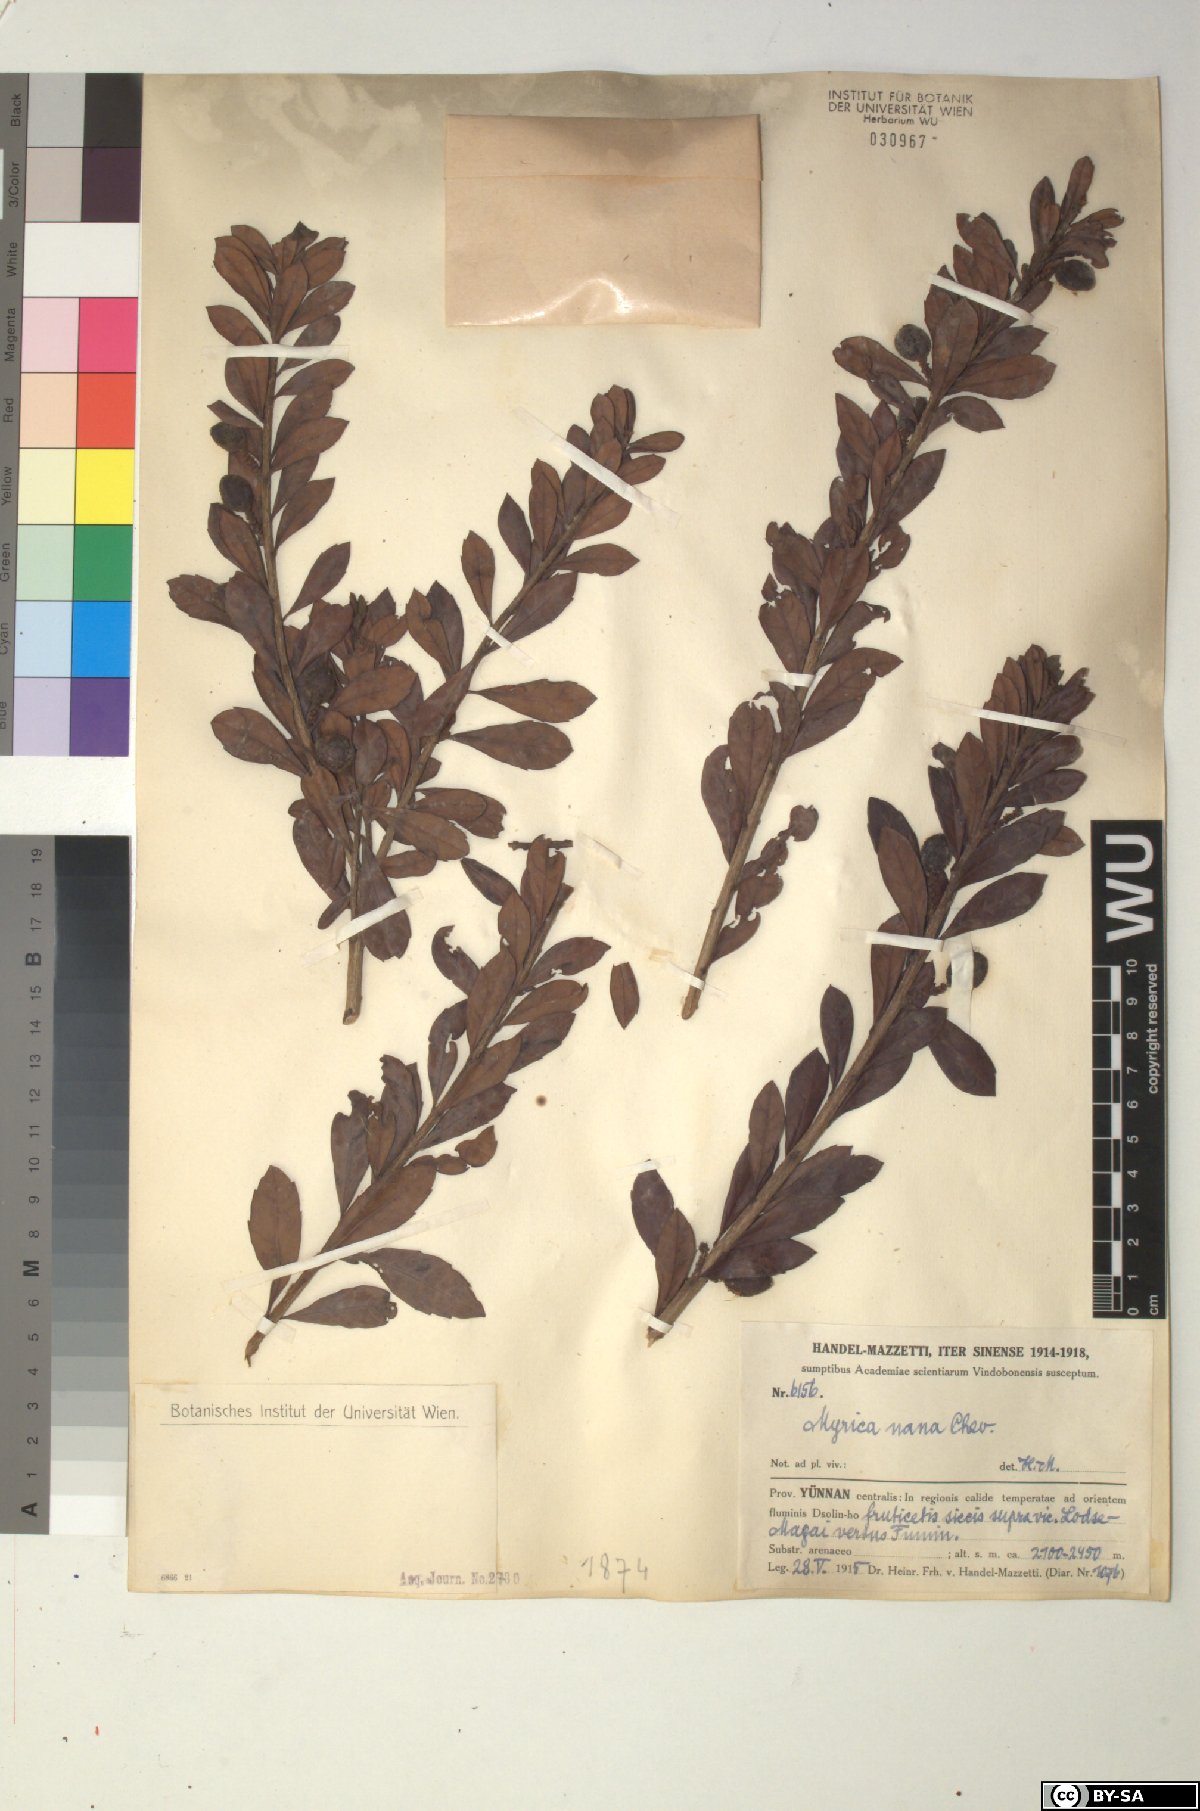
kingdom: Plantae
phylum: Tracheophyta
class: Magnoliopsida
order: Fagales
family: Myricaceae
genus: Morella
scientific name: Morella nana
